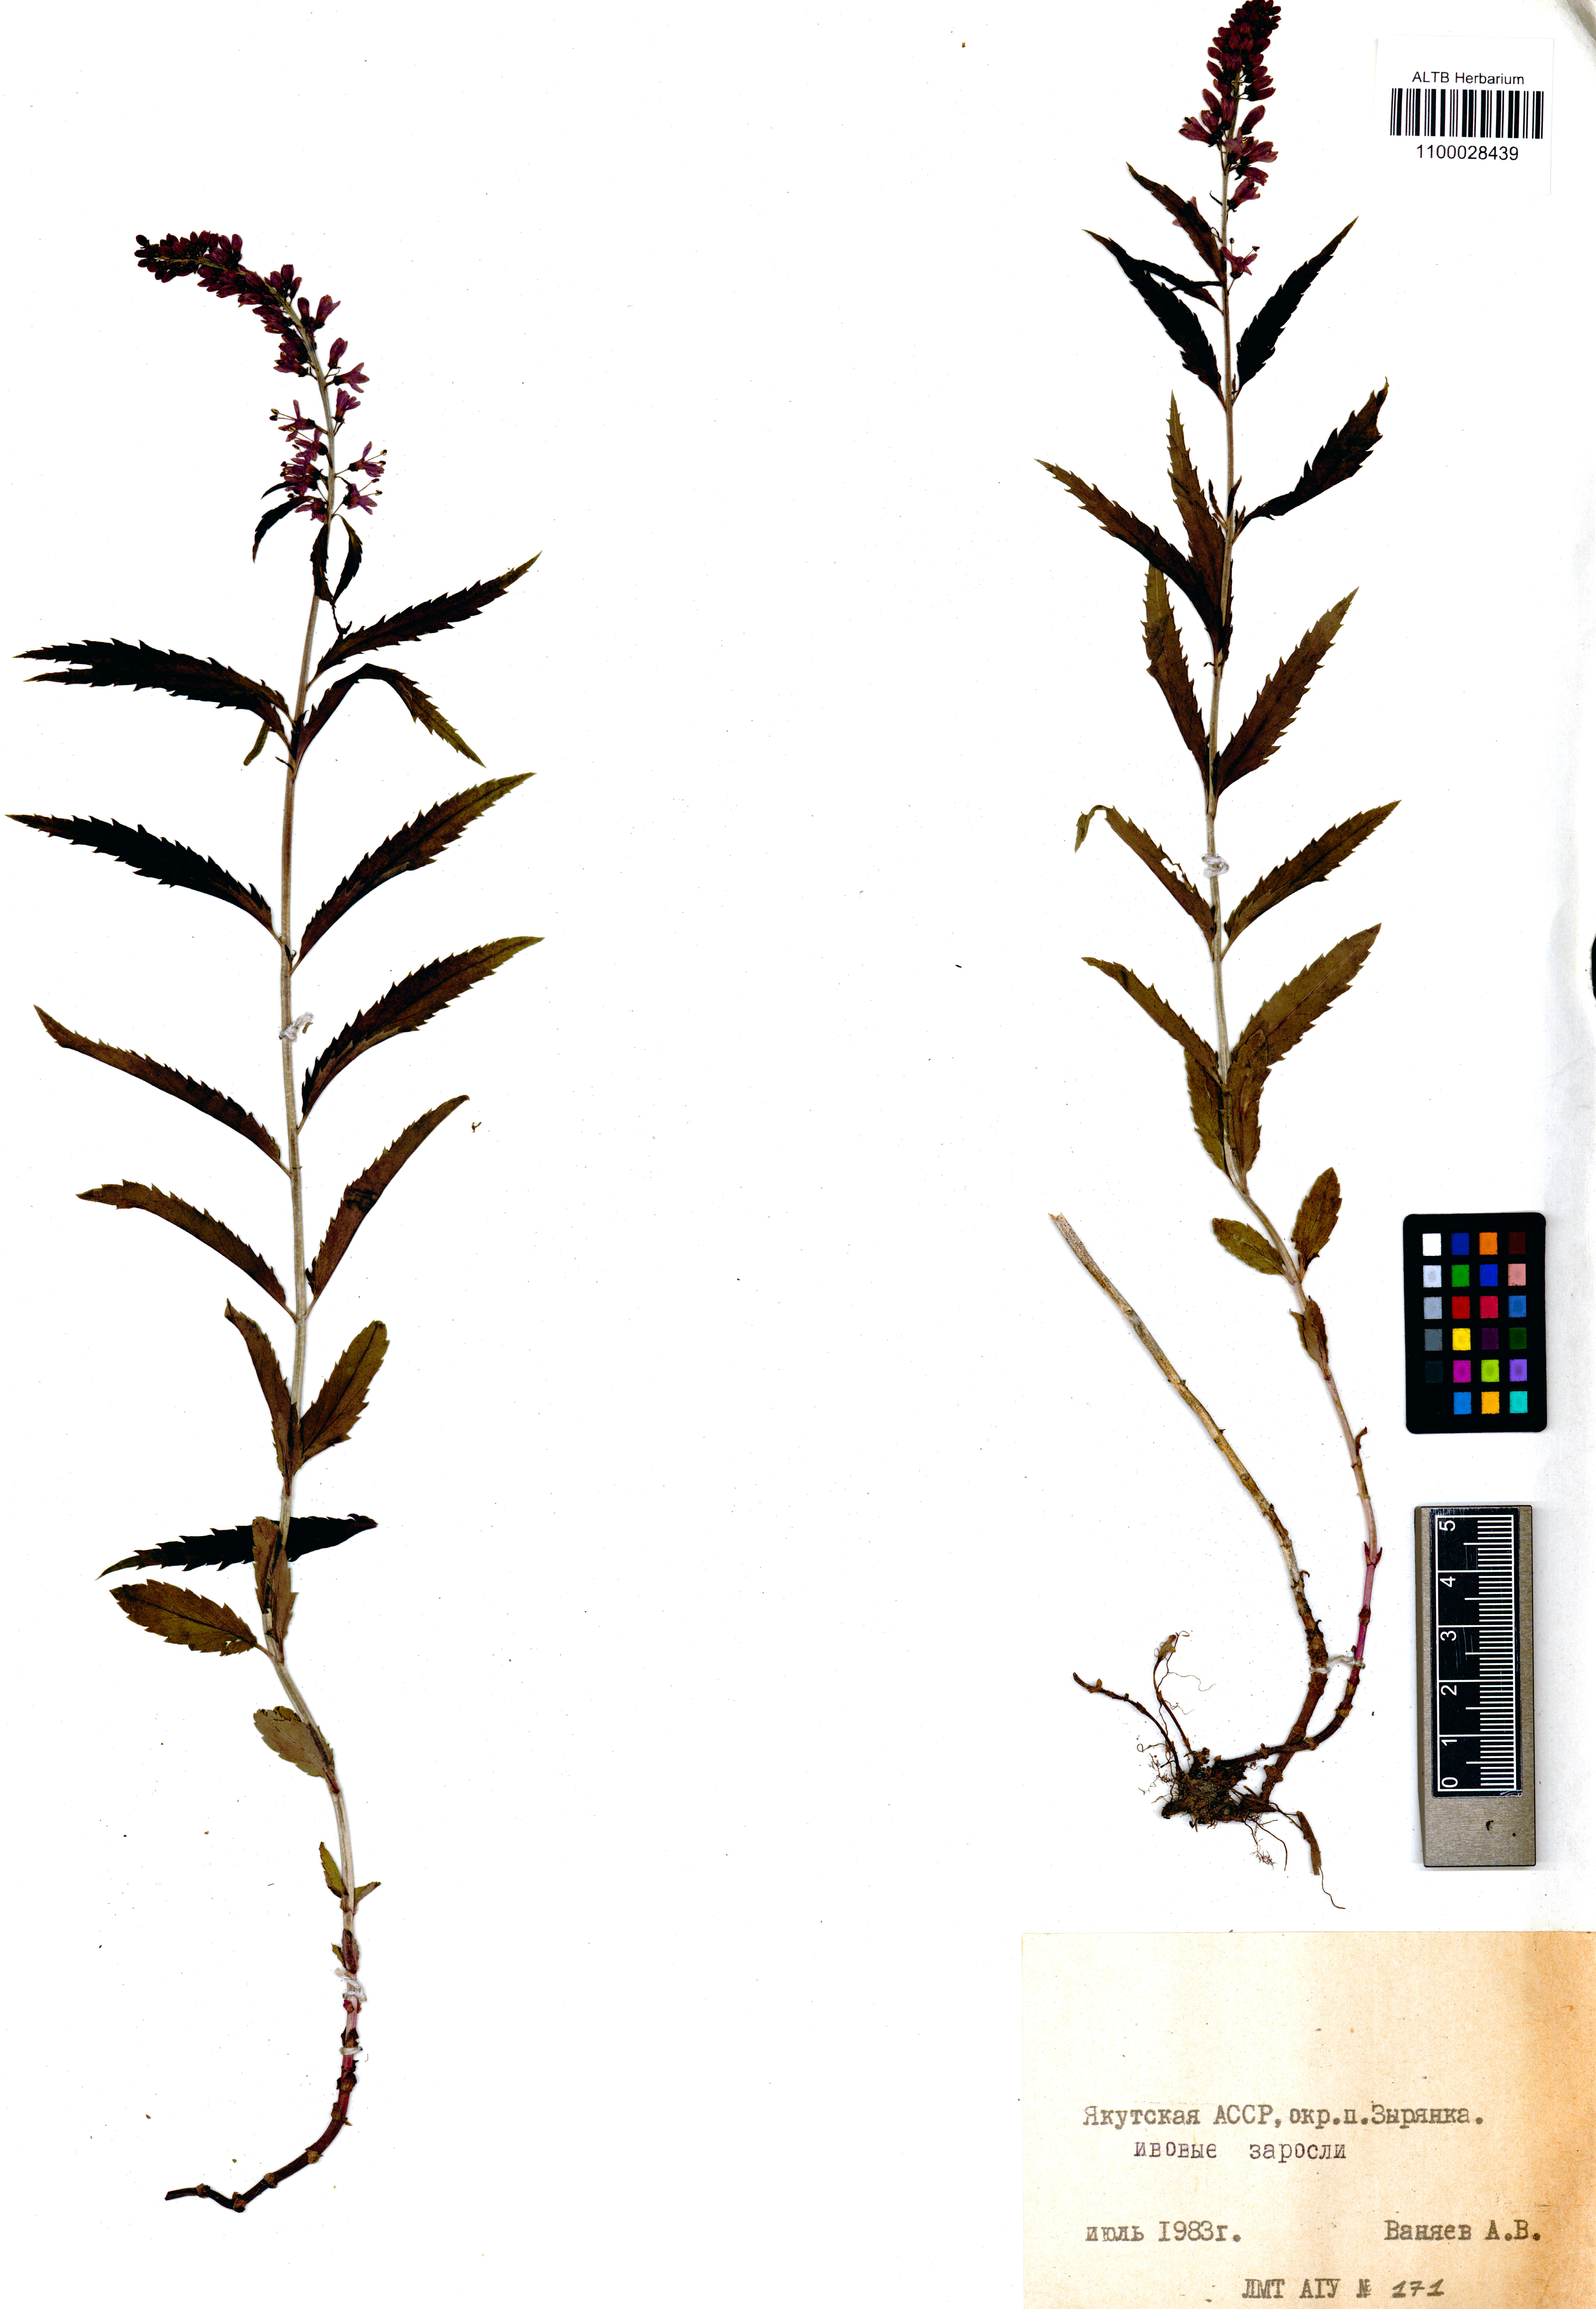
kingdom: Plantae
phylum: Tracheophyta
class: Magnoliopsida
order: Lamiales
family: Plantaginaceae
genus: Veronica
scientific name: Veronica longifolia
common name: Garden speedwell
